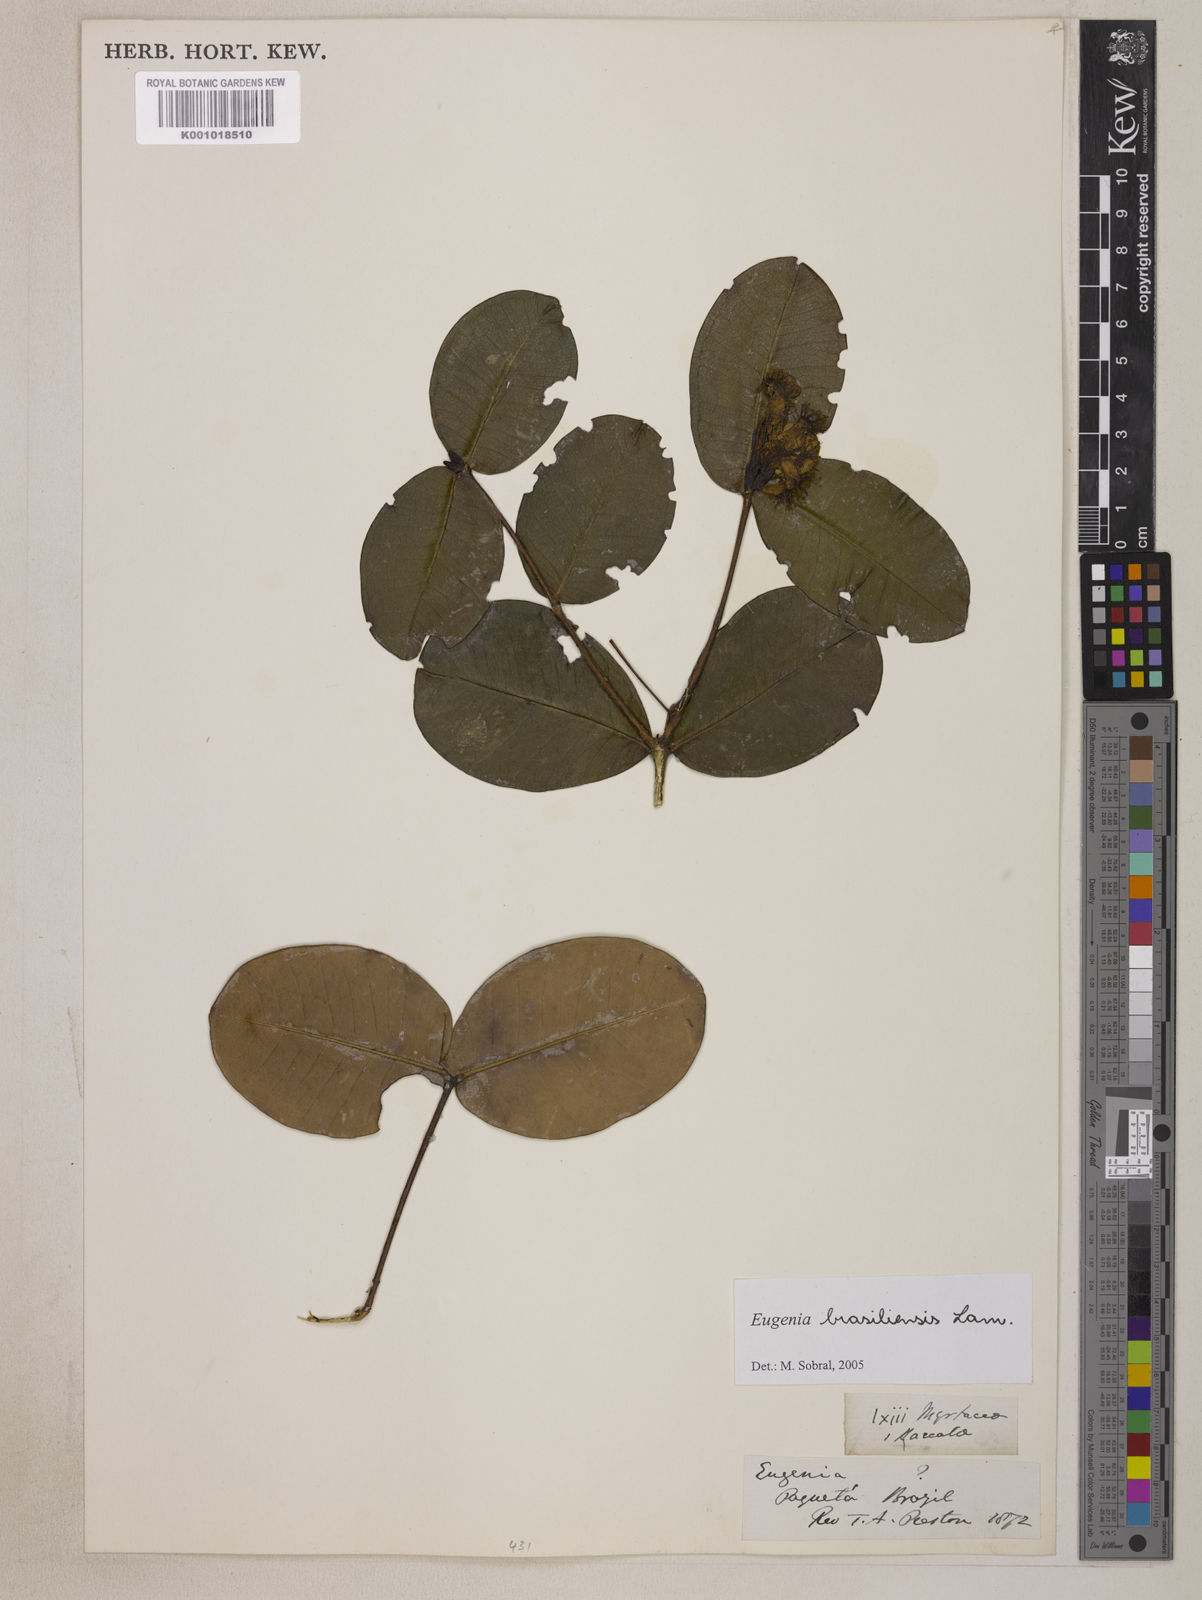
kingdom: Plantae
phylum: Tracheophyta
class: Magnoliopsida
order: Myrtales
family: Myrtaceae
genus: Eugenia
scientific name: Eugenia brasiliensis
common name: Grumichama
